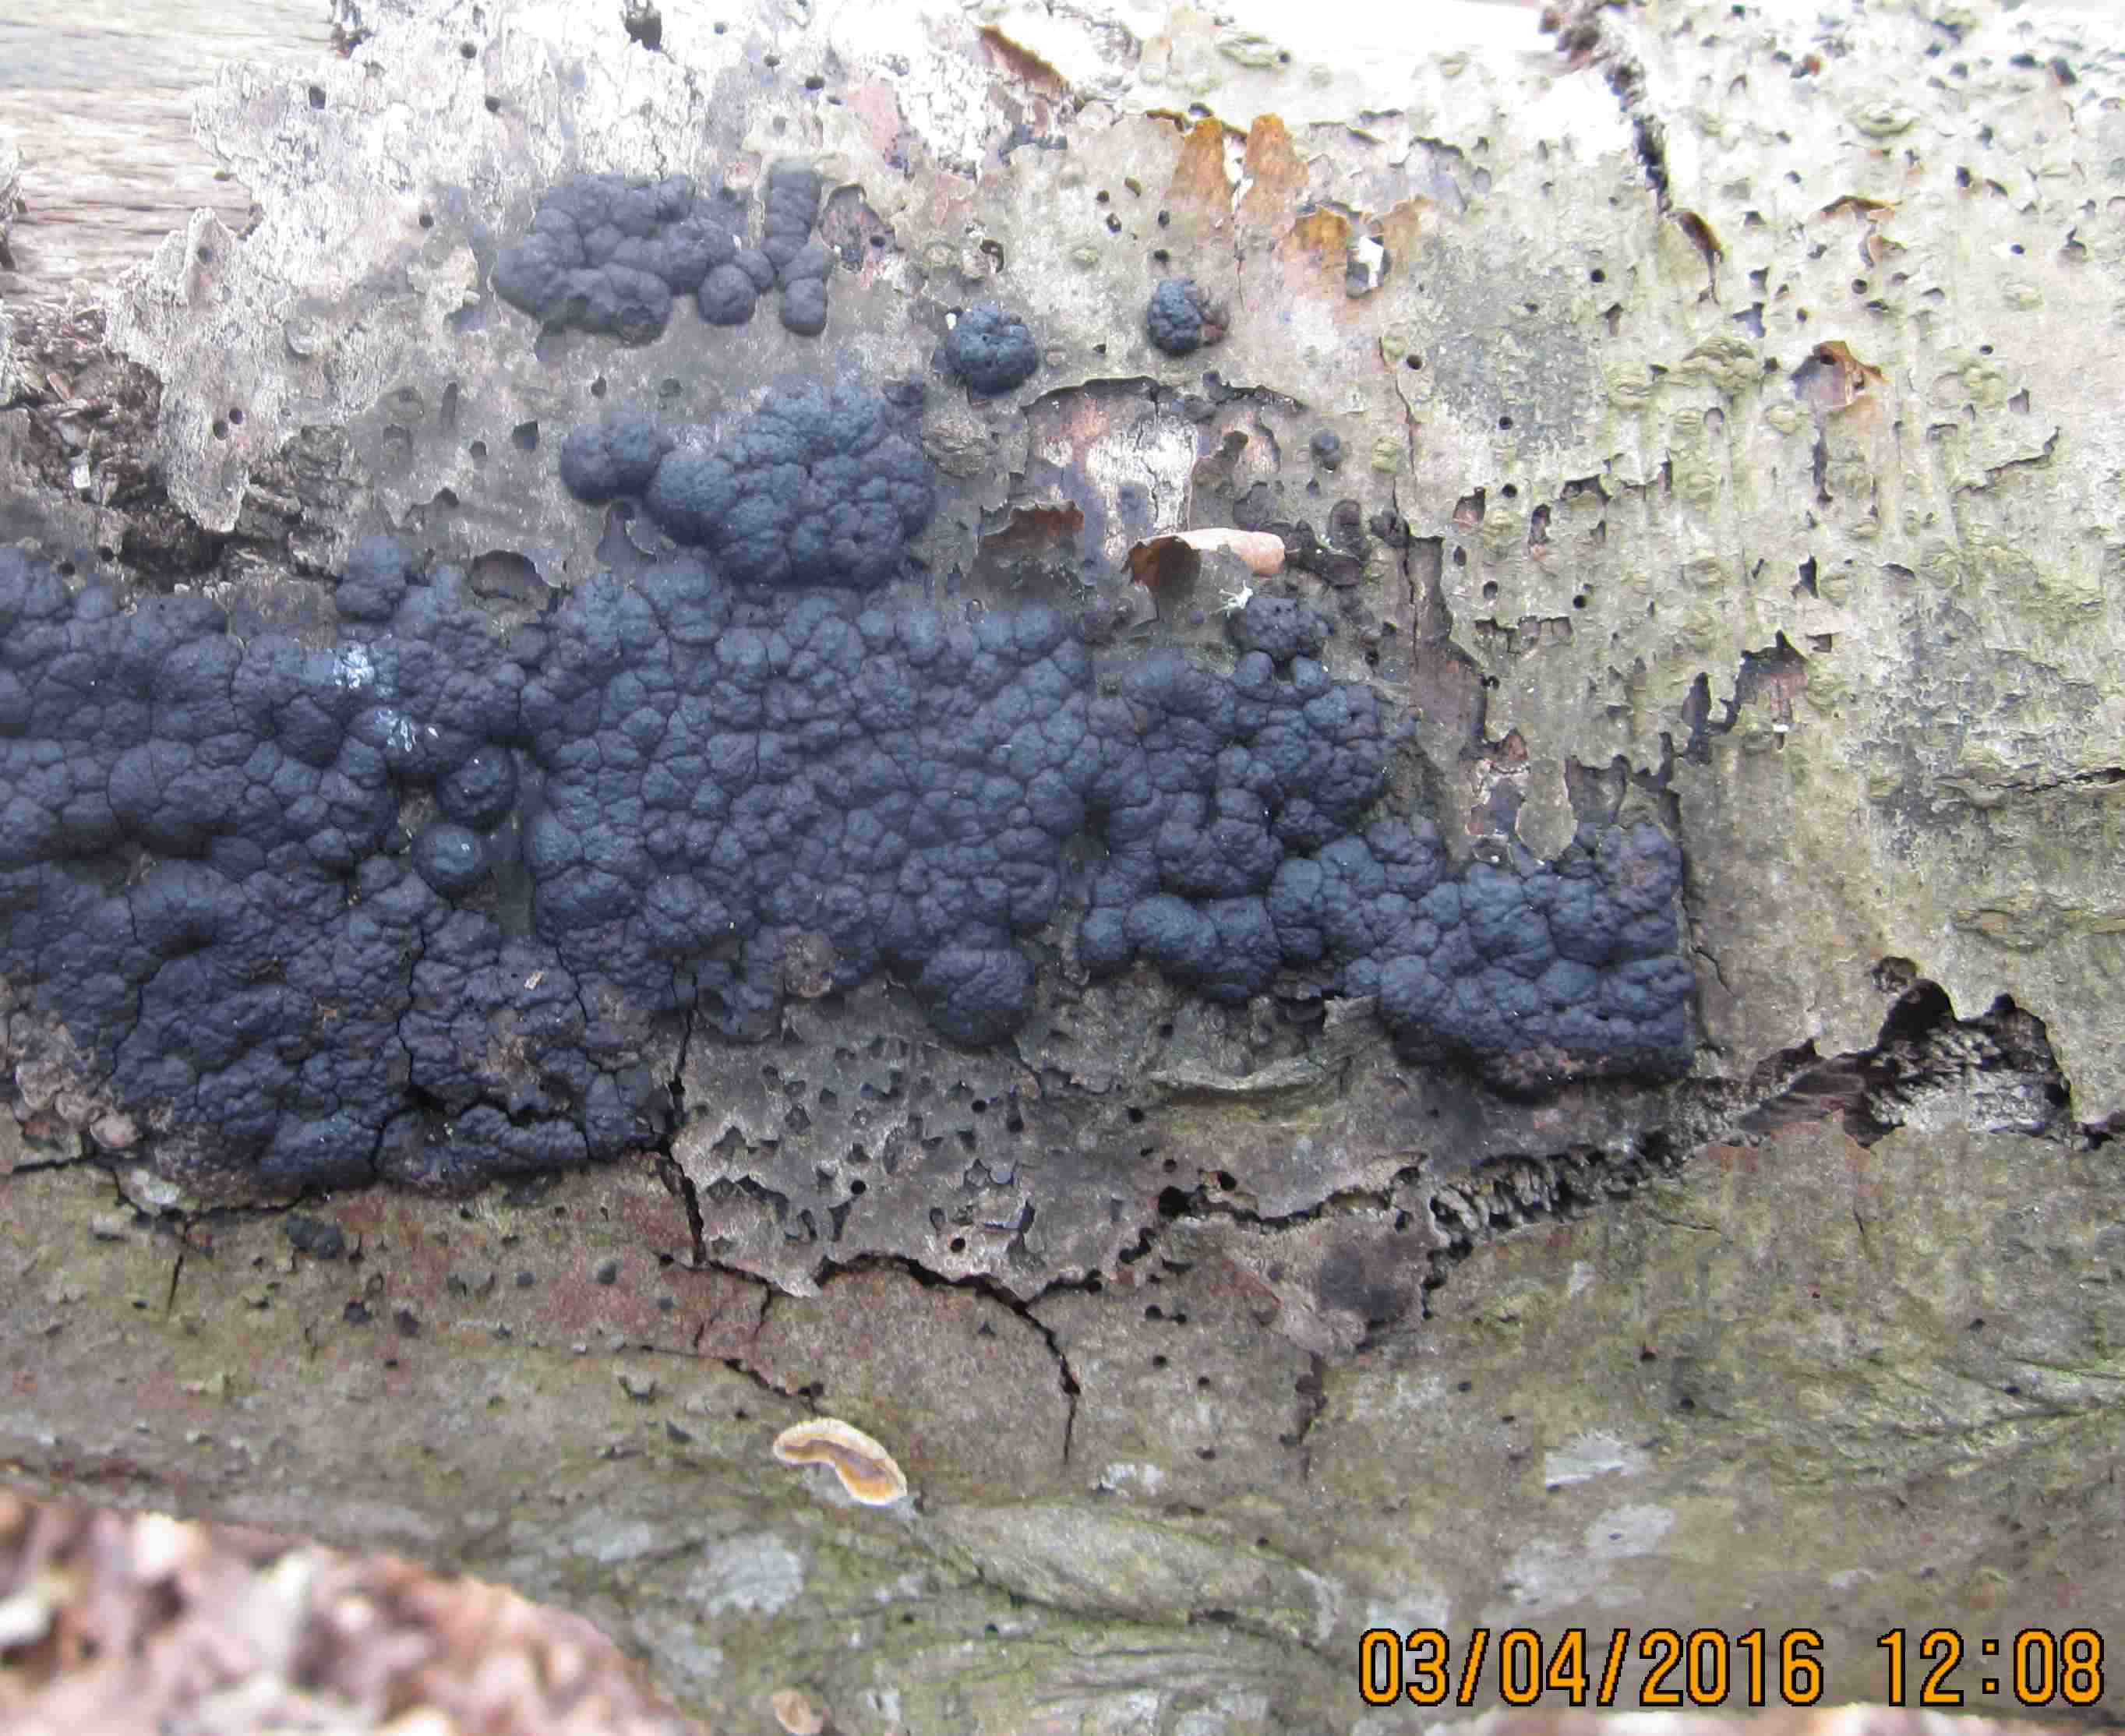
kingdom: Fungi
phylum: Ascomycota
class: Sordariomycetes
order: Xylariales
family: Hypoxylaceae
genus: Jackrogersella
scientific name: Jackrogersella cohaerens
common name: sammenflydende kulbær
